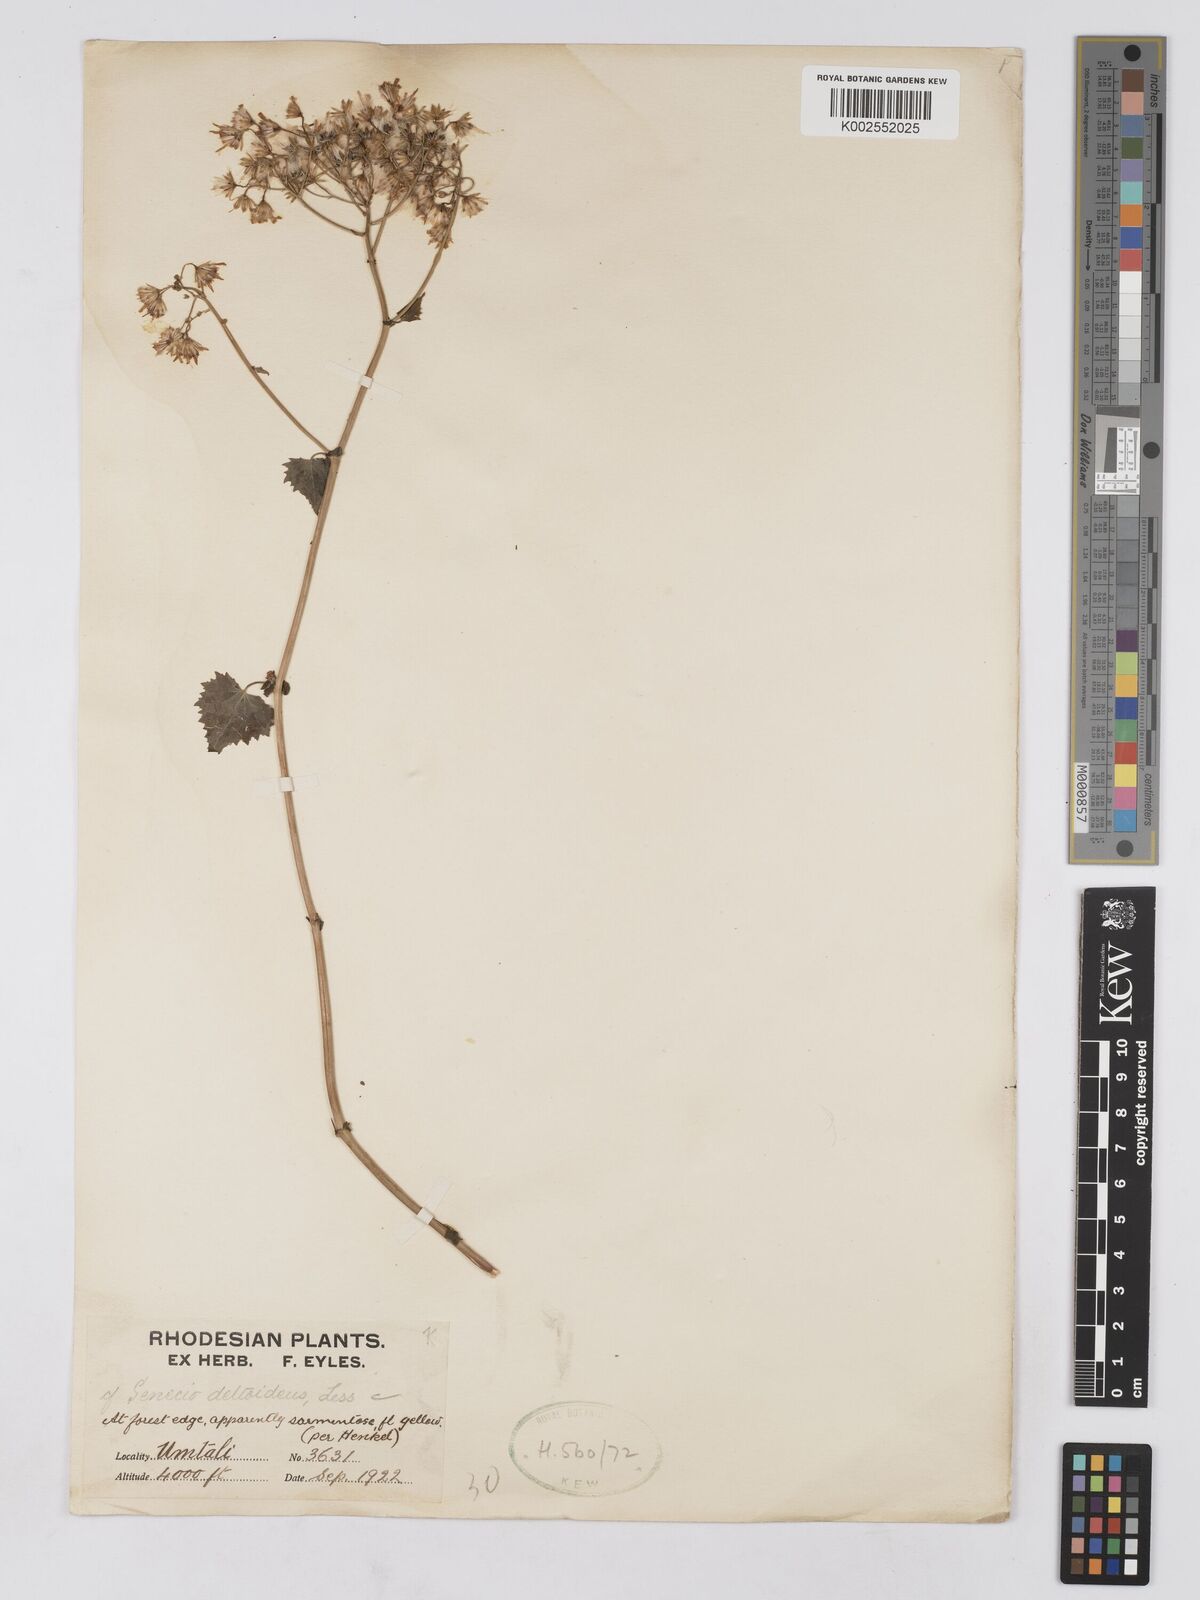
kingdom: Plantae
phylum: Tracheophyta
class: Magnoliopsida
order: Asterales
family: Asteraceae
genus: Cineraria
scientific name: Cineraria deltoidea
